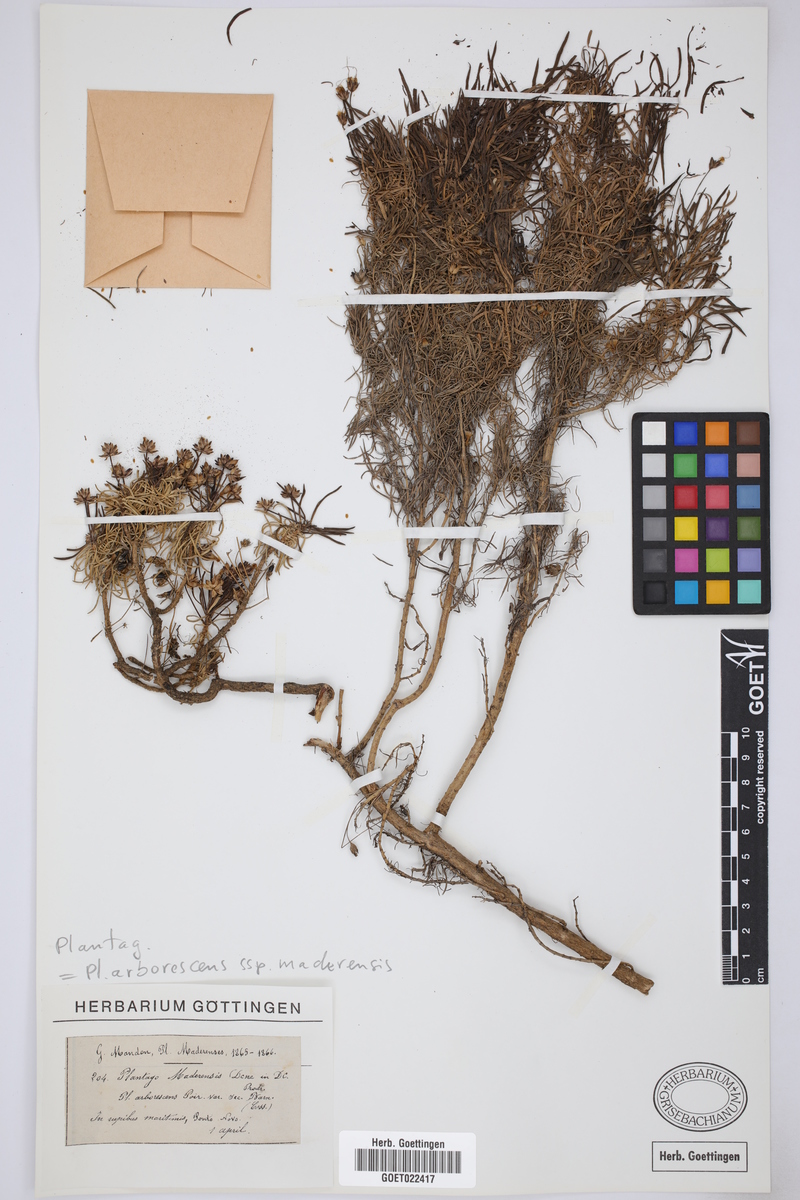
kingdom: Plantae
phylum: Tracheophyta
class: Magnoliopsida
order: Lamiales
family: Plantaginaceae
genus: Plantago
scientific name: Plantago arborescens
